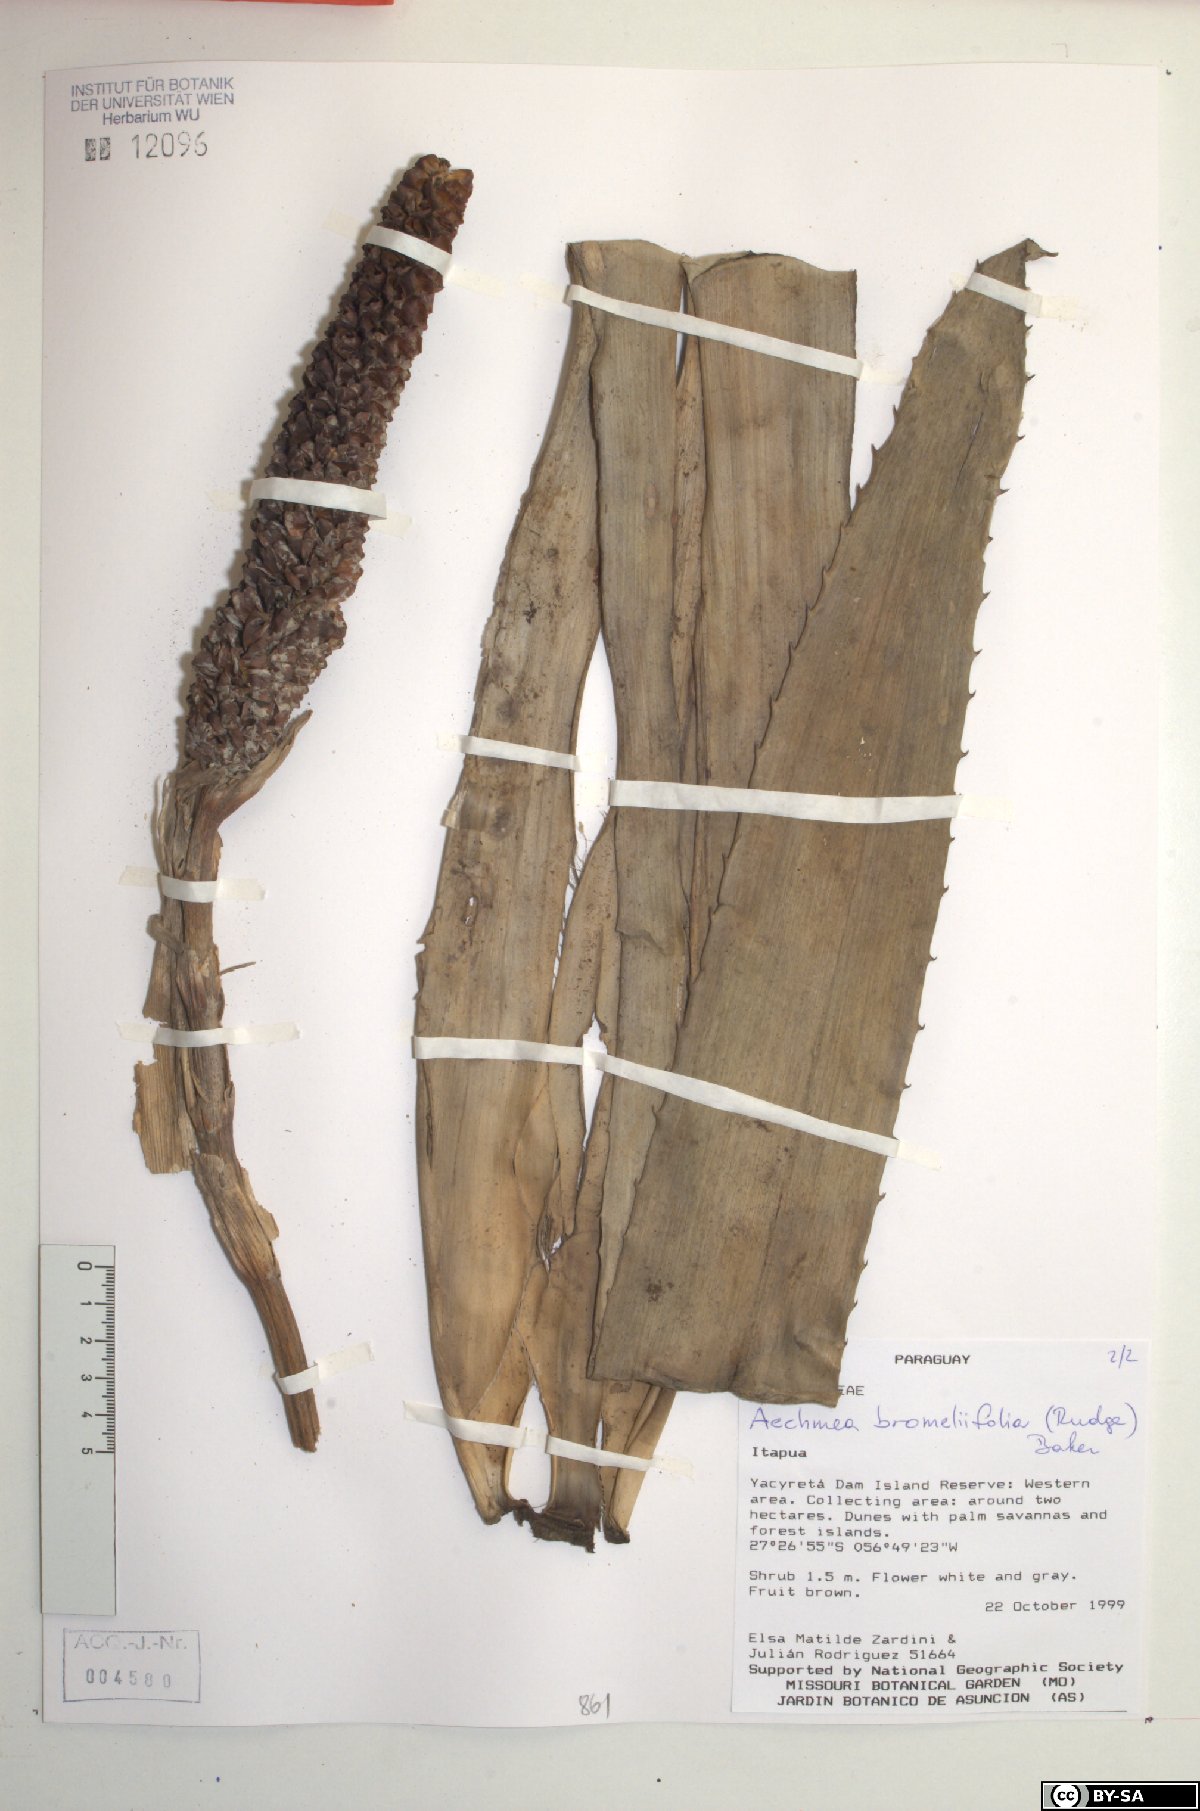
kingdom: Plantae
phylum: Tracheophyta
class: Liliopsida
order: Poales
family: Bromeliaceae
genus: Aechmea
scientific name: Aechmea bromeliifolia
